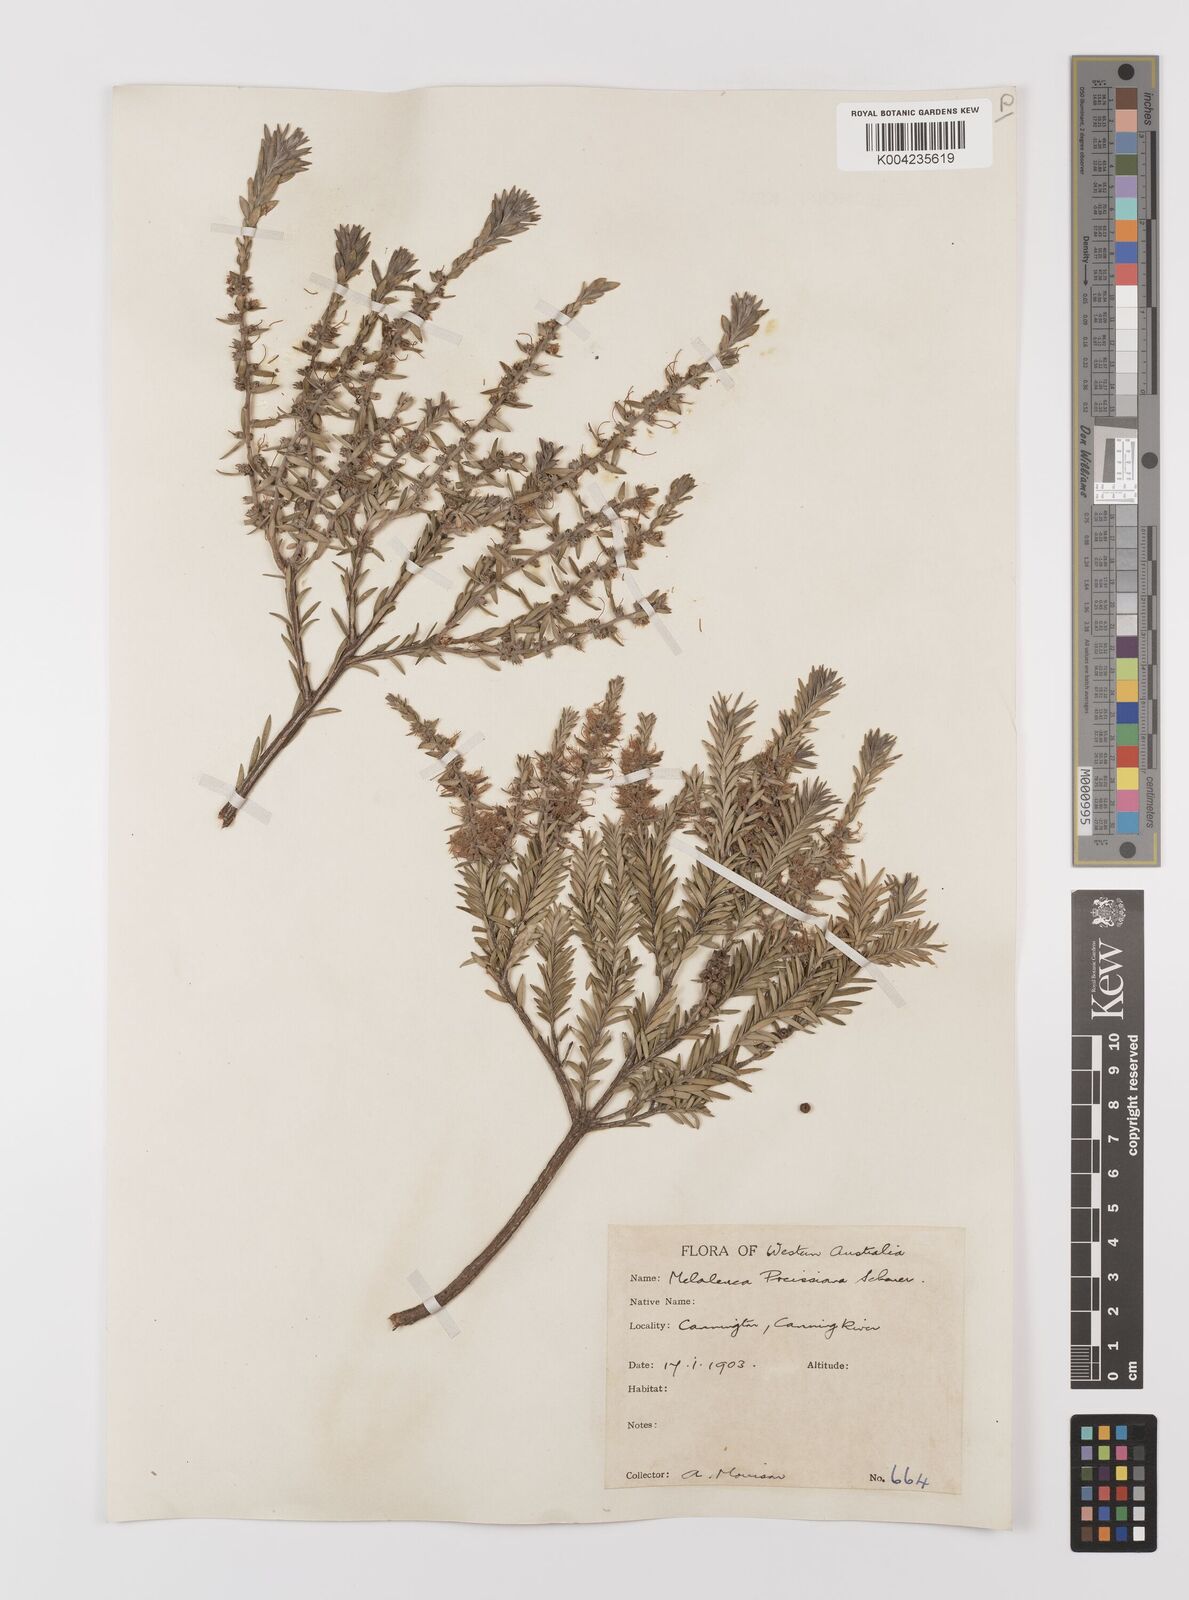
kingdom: Plantae
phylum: Tracheophyta
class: Magnoliopsida
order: Myrtales
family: Myrtaceae
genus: Melaleuca
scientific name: Melaleuca preissiana
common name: Preiss's paperbark
